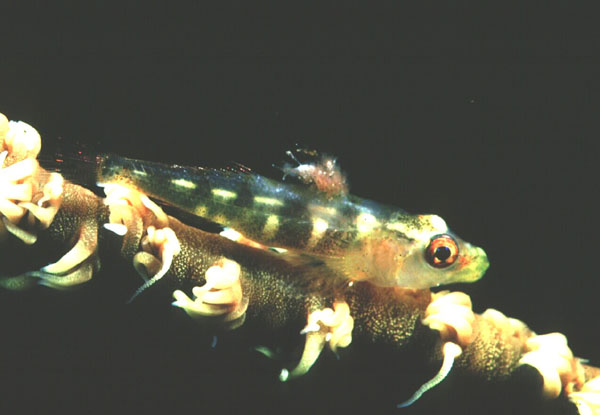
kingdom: Animalia
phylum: Chordata
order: Perciformes
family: Gobiidae
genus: Bryaninops
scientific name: Bryaninops yongei
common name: Whip coral goby
